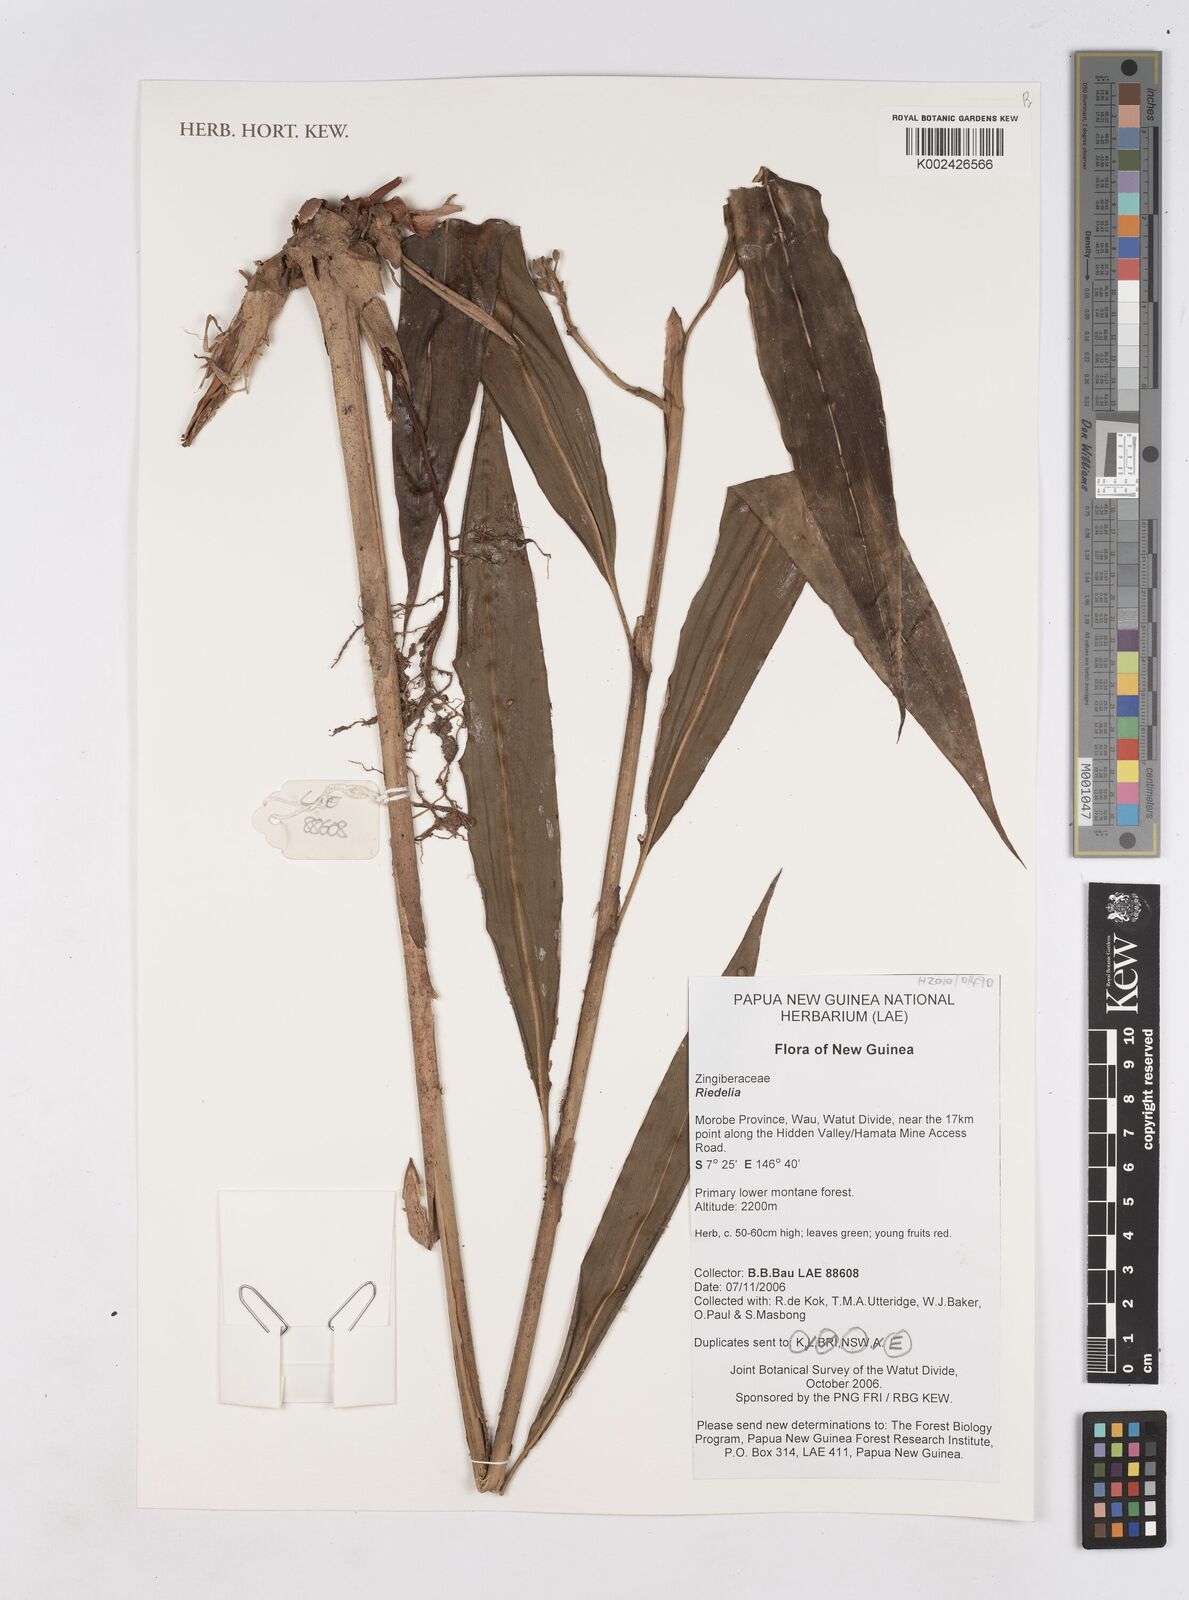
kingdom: Plantae
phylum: Tracheophyta
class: Liliopsida
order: Zingiberales
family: Zingiberaceae
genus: Riedelia
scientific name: Riedelia
